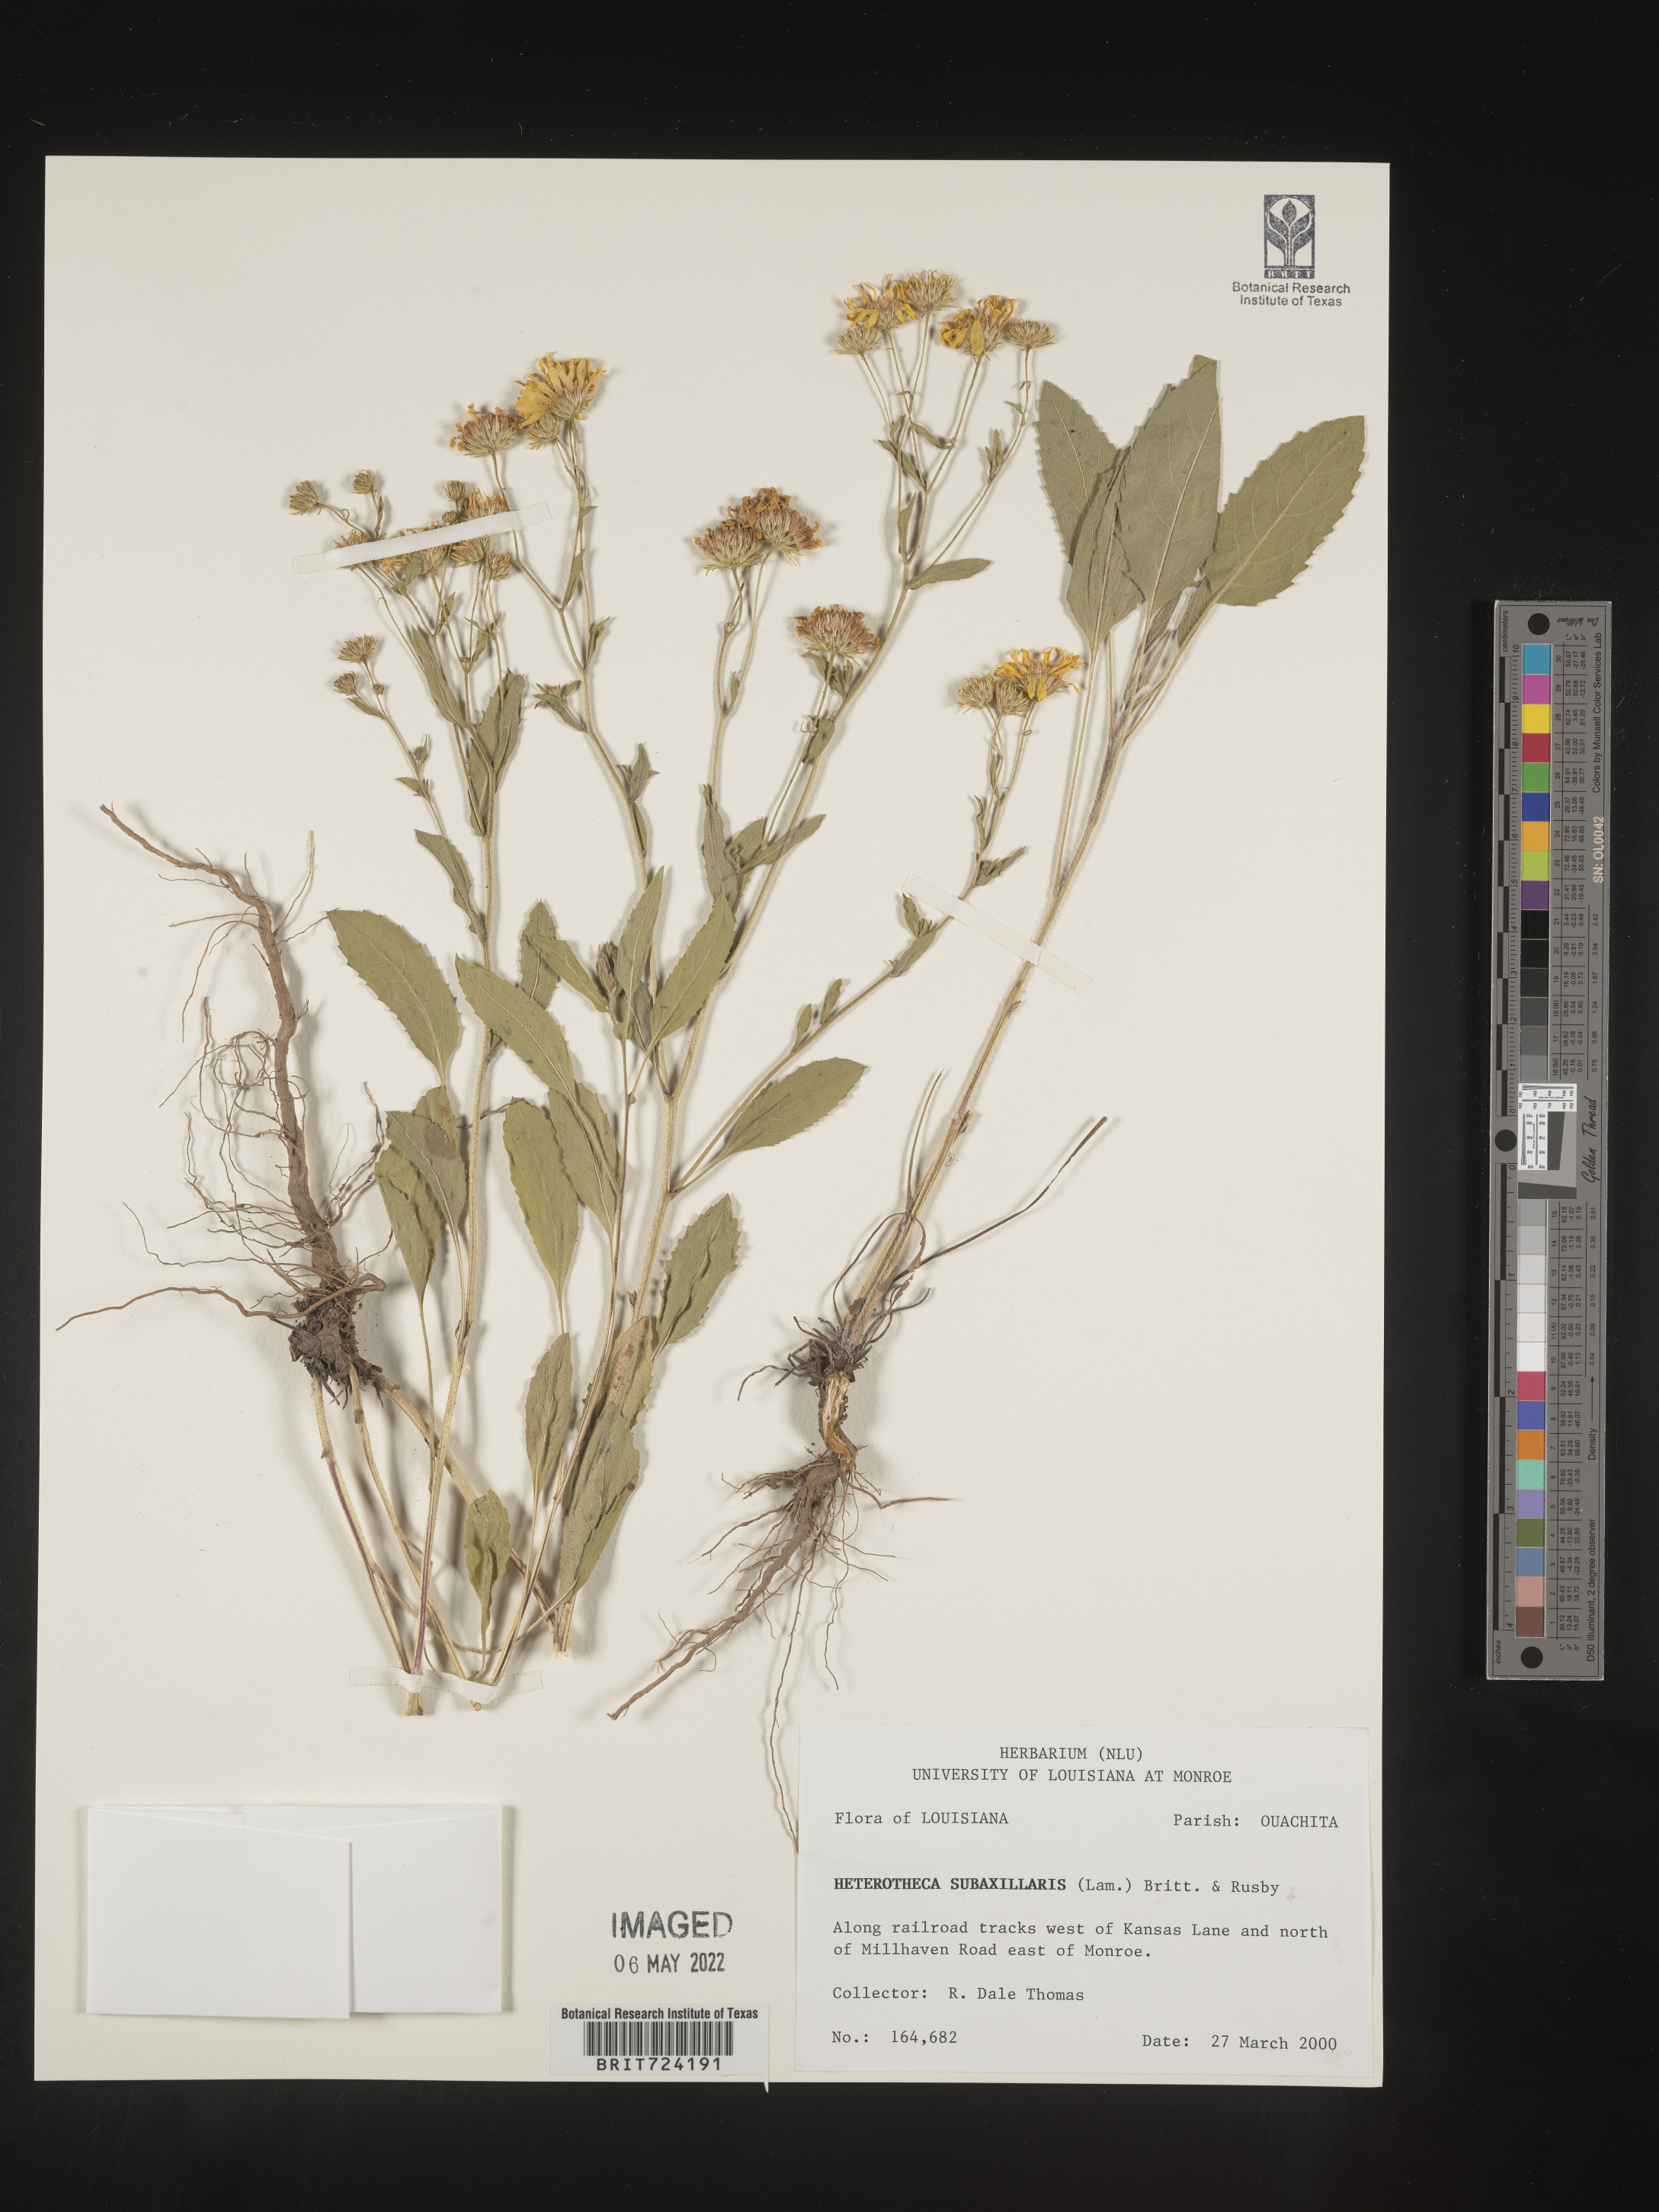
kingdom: Plantae
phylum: Tracheophyta
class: Magnoliopsida
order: Asterales
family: Asteraceae
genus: Heterotheca
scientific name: Heterotheca subaxillaris
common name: Camphorweed
